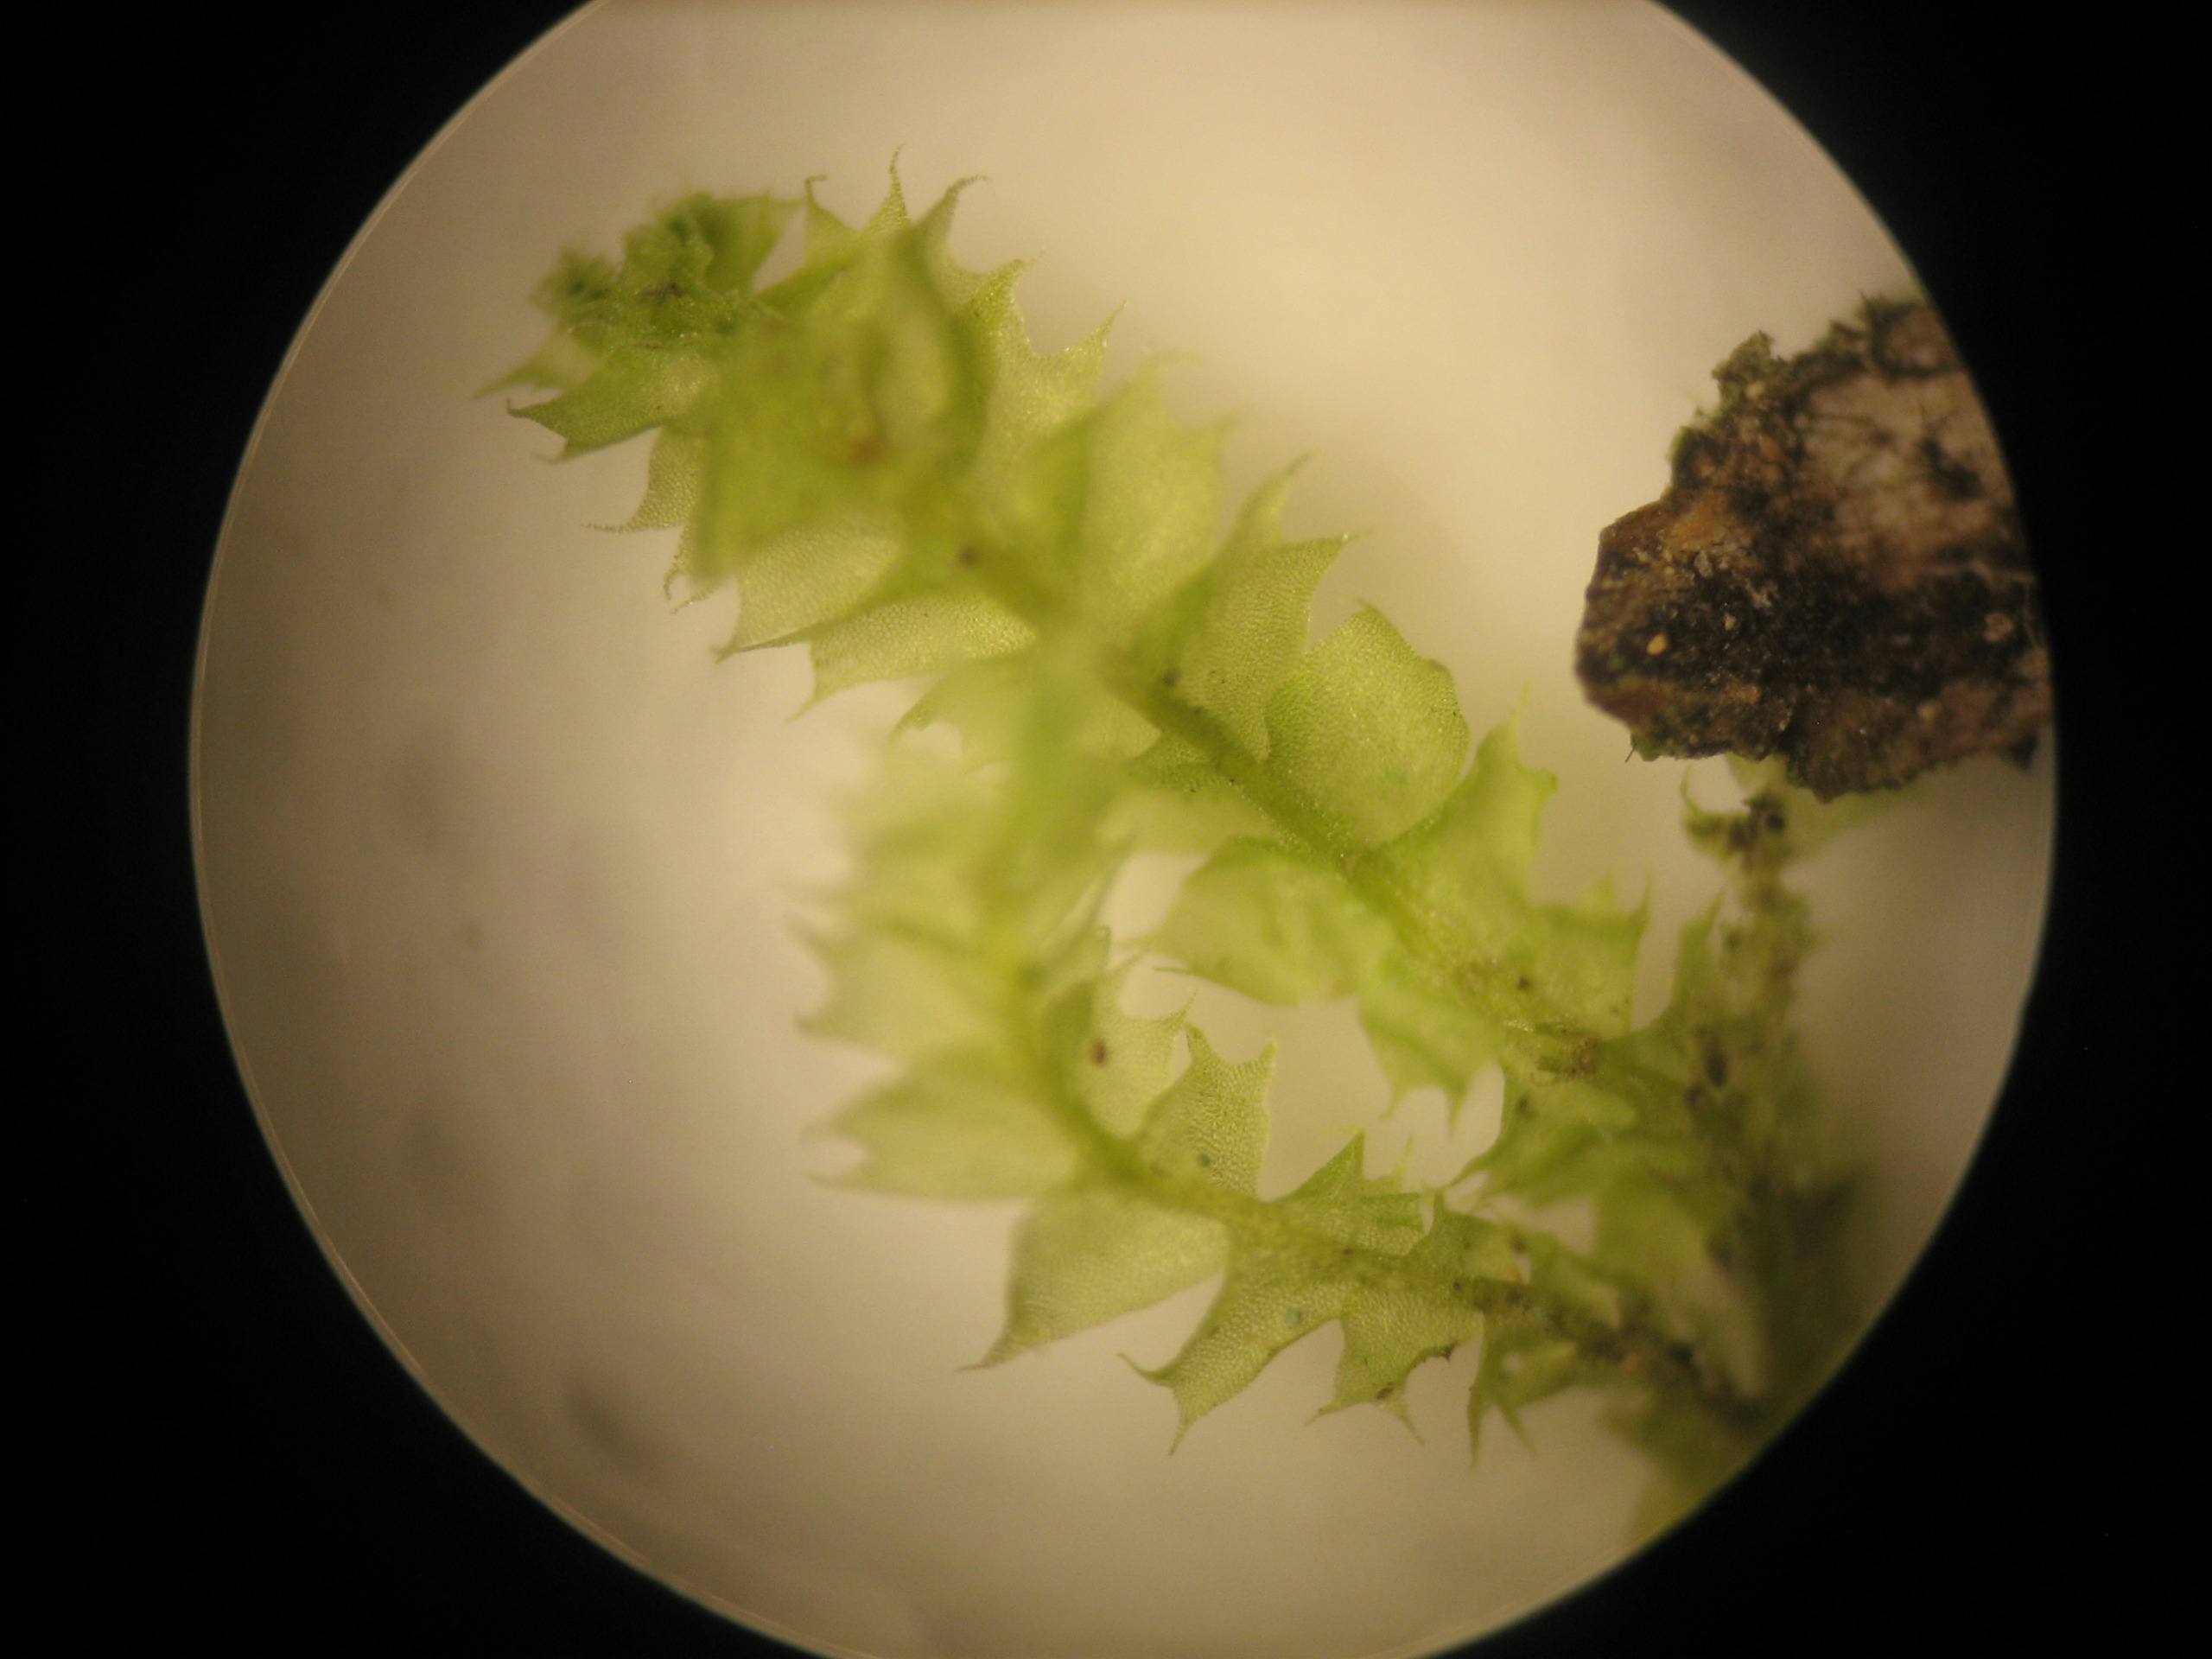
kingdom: Plantae
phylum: Marchantiophyta
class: Jungermanniopsida
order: Jungermanniales
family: Lophocoleaceae
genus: Lophocolea
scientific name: Lophocolea bidentata
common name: Sylspidset kamsvøb
